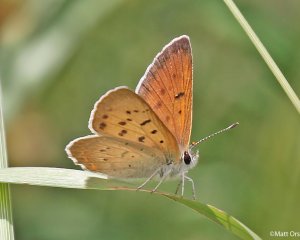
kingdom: Animalia
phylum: Arthropoda
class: Insecta
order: Lepidoptera
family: Sesiidae
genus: Sesia
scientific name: Sesia Lycaena helloides
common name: Purplish Copper
